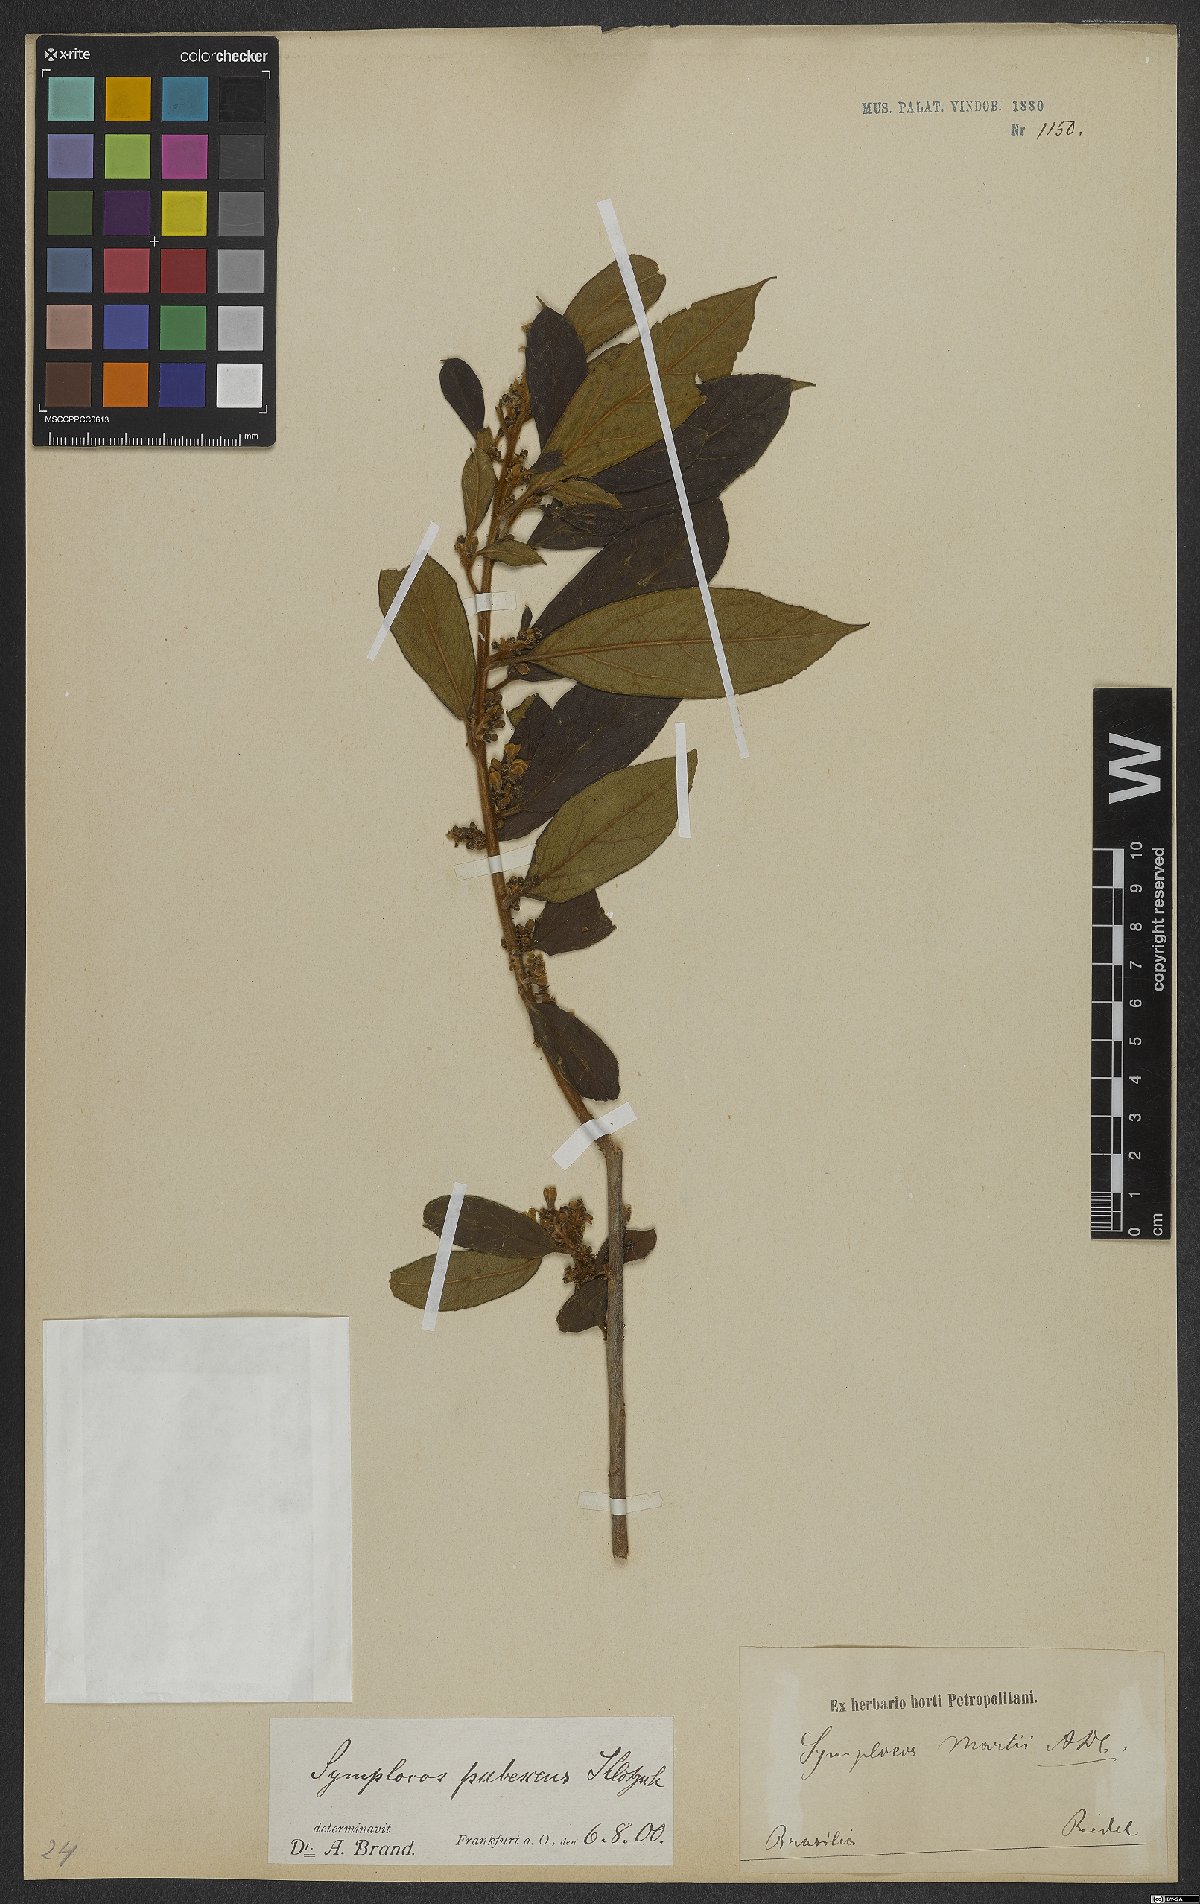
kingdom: Plantae
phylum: Tracheophyta
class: Magnoliopsida
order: Ericales
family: Symplocaceae
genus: Symplocos
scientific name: Symplocos pubescens
